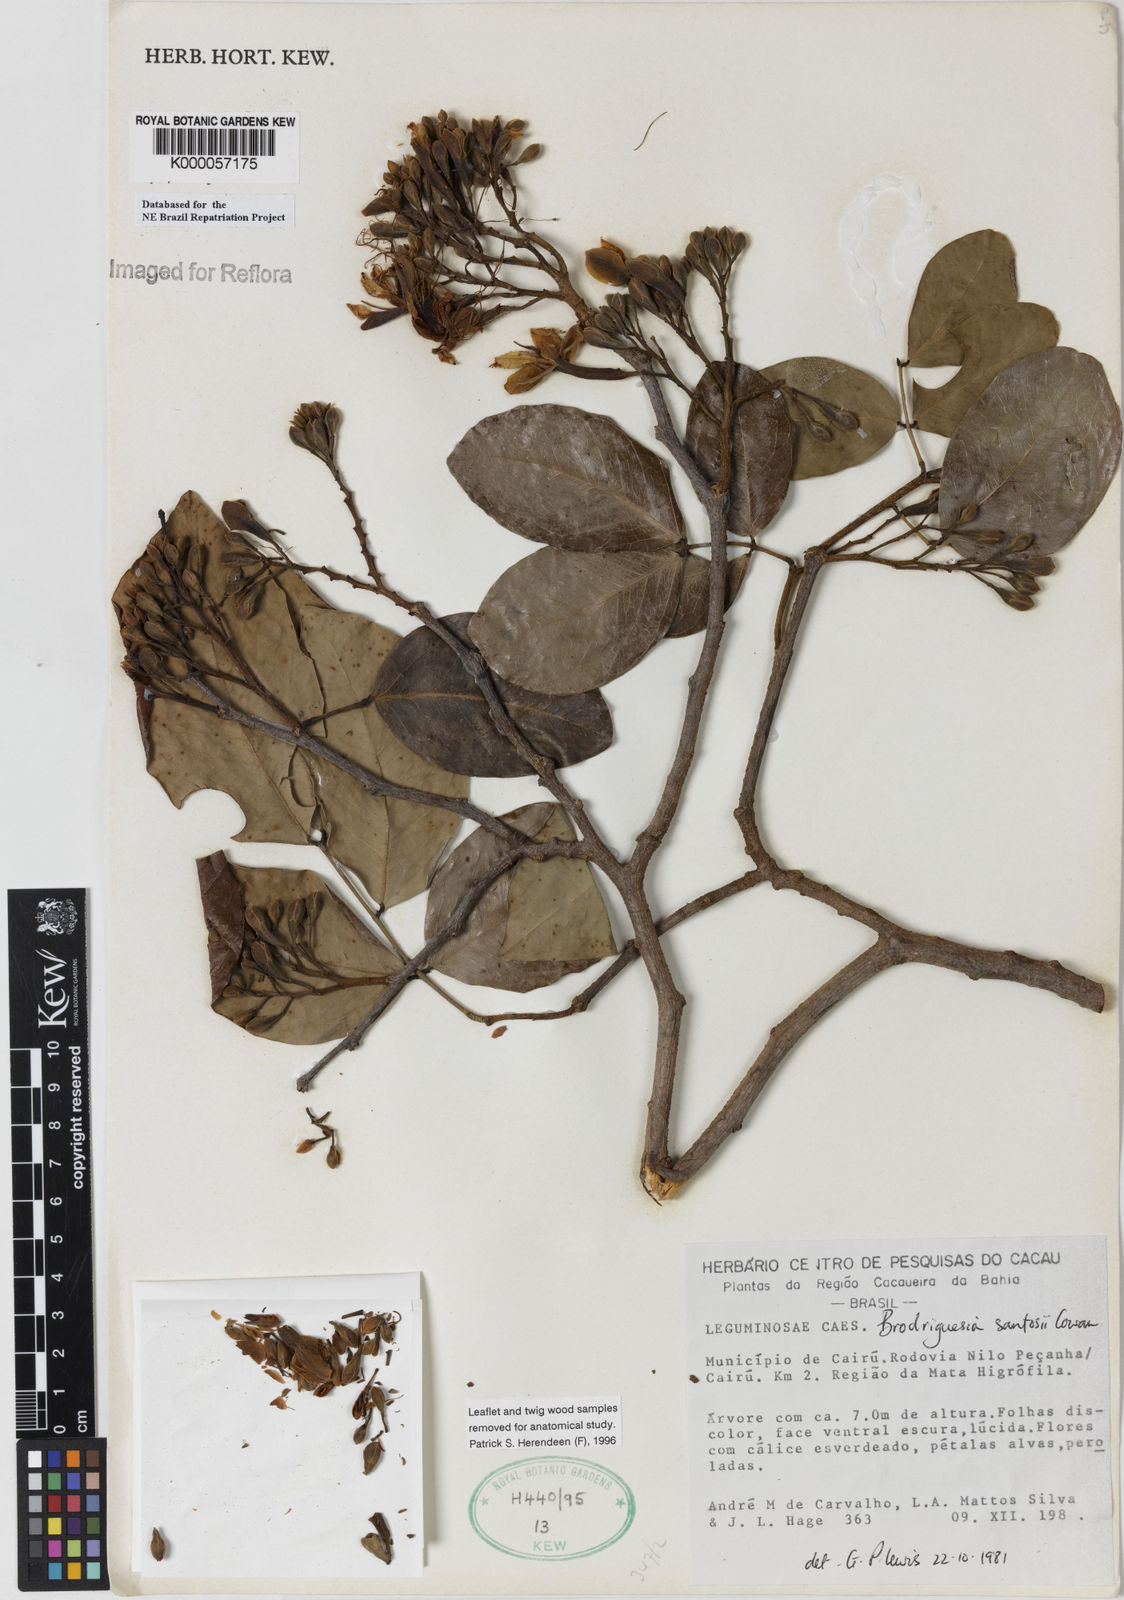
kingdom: Plantae
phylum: Tracheophyta
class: Magnoliopsida
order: Fabales
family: Fabaceae
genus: Brodriguesia
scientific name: Brodriguesia santosii
